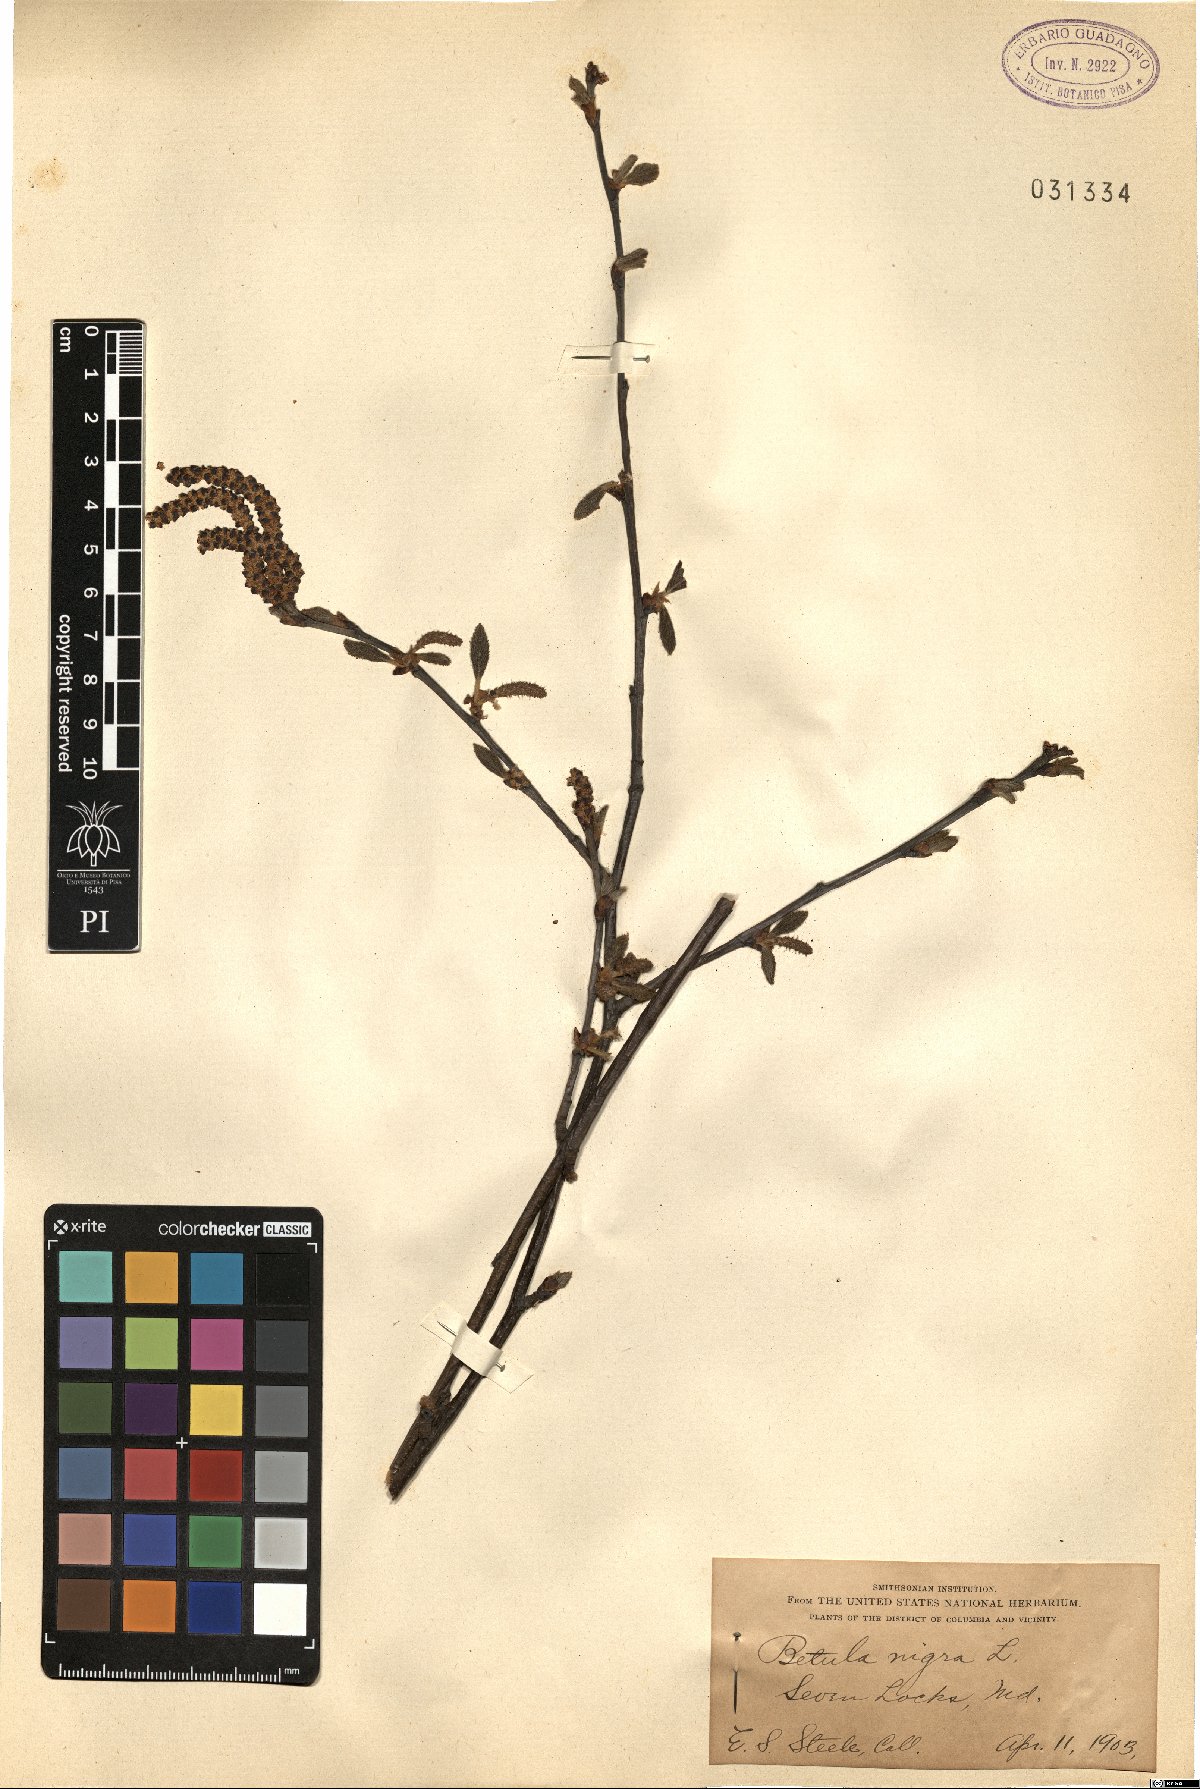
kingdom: Plantae
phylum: Tracheophyta
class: Magnoliopsida
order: Fagales
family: Betulaceae
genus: Betula
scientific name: Betula nigra
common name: Black birch
